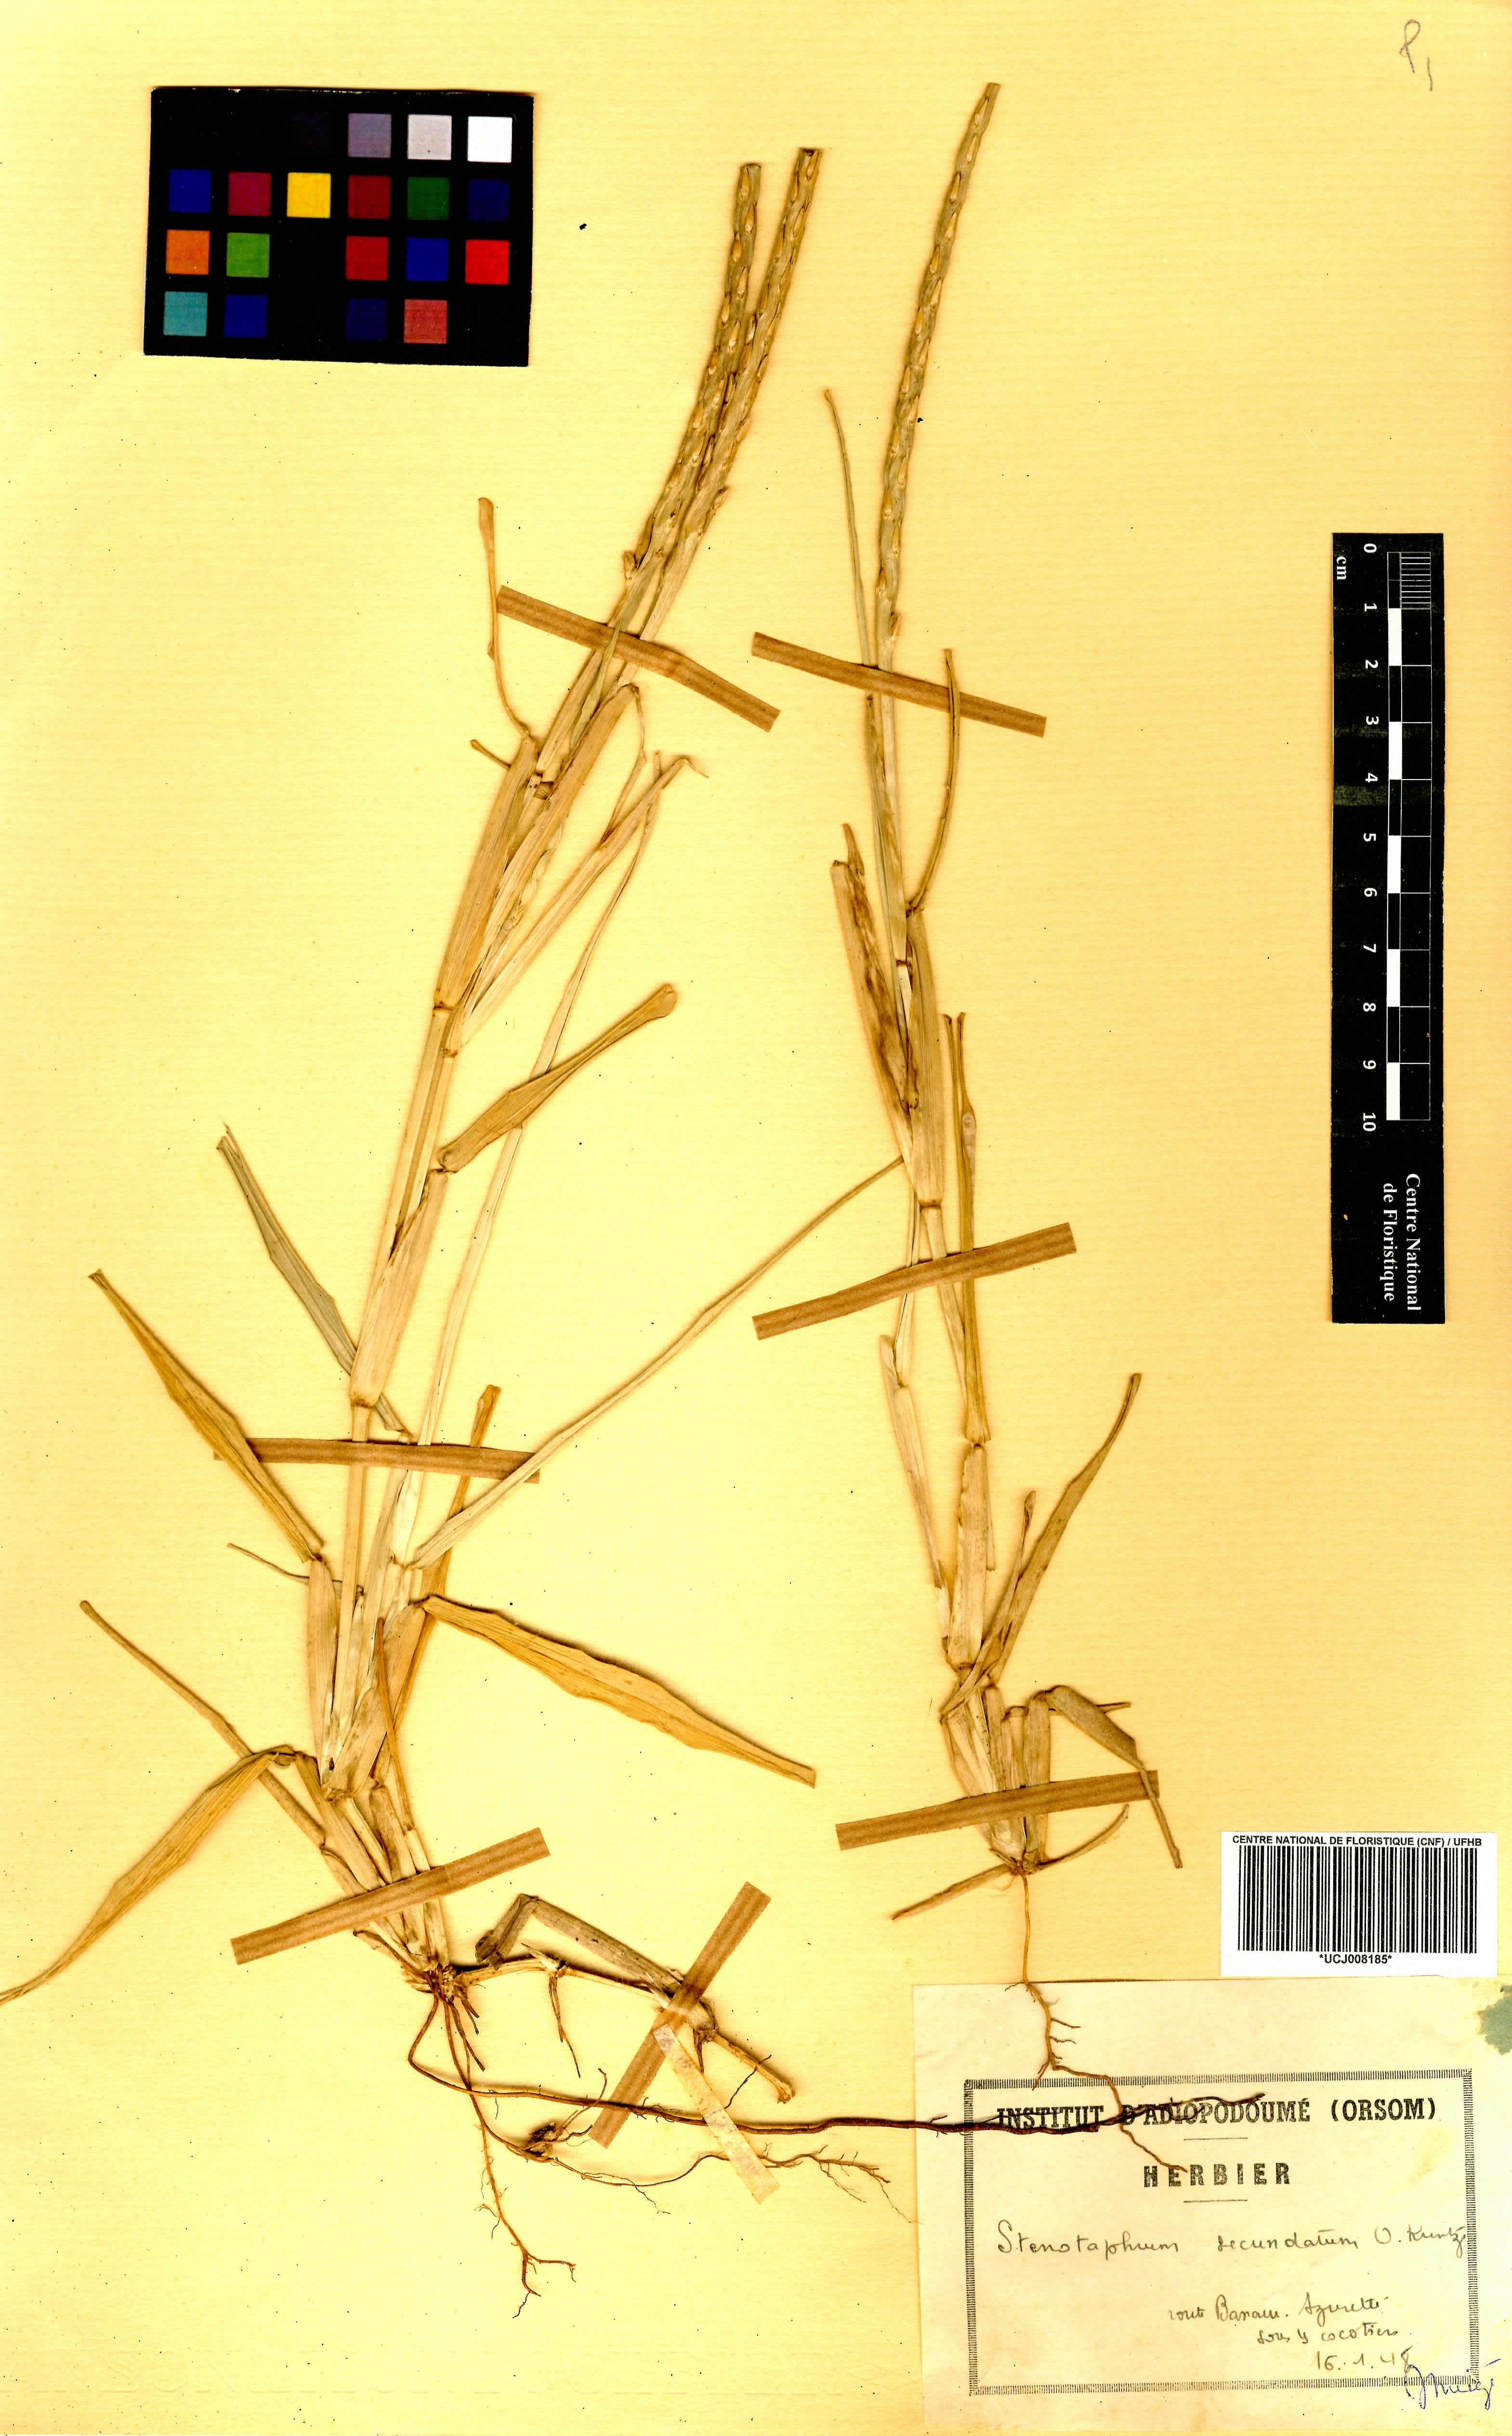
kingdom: Plantae
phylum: Tracheophyta
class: Liliopsida
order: Poales
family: Poaceae
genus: Stenotaphrum
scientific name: Stenotaphrum secundatum
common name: St. augustine grass
